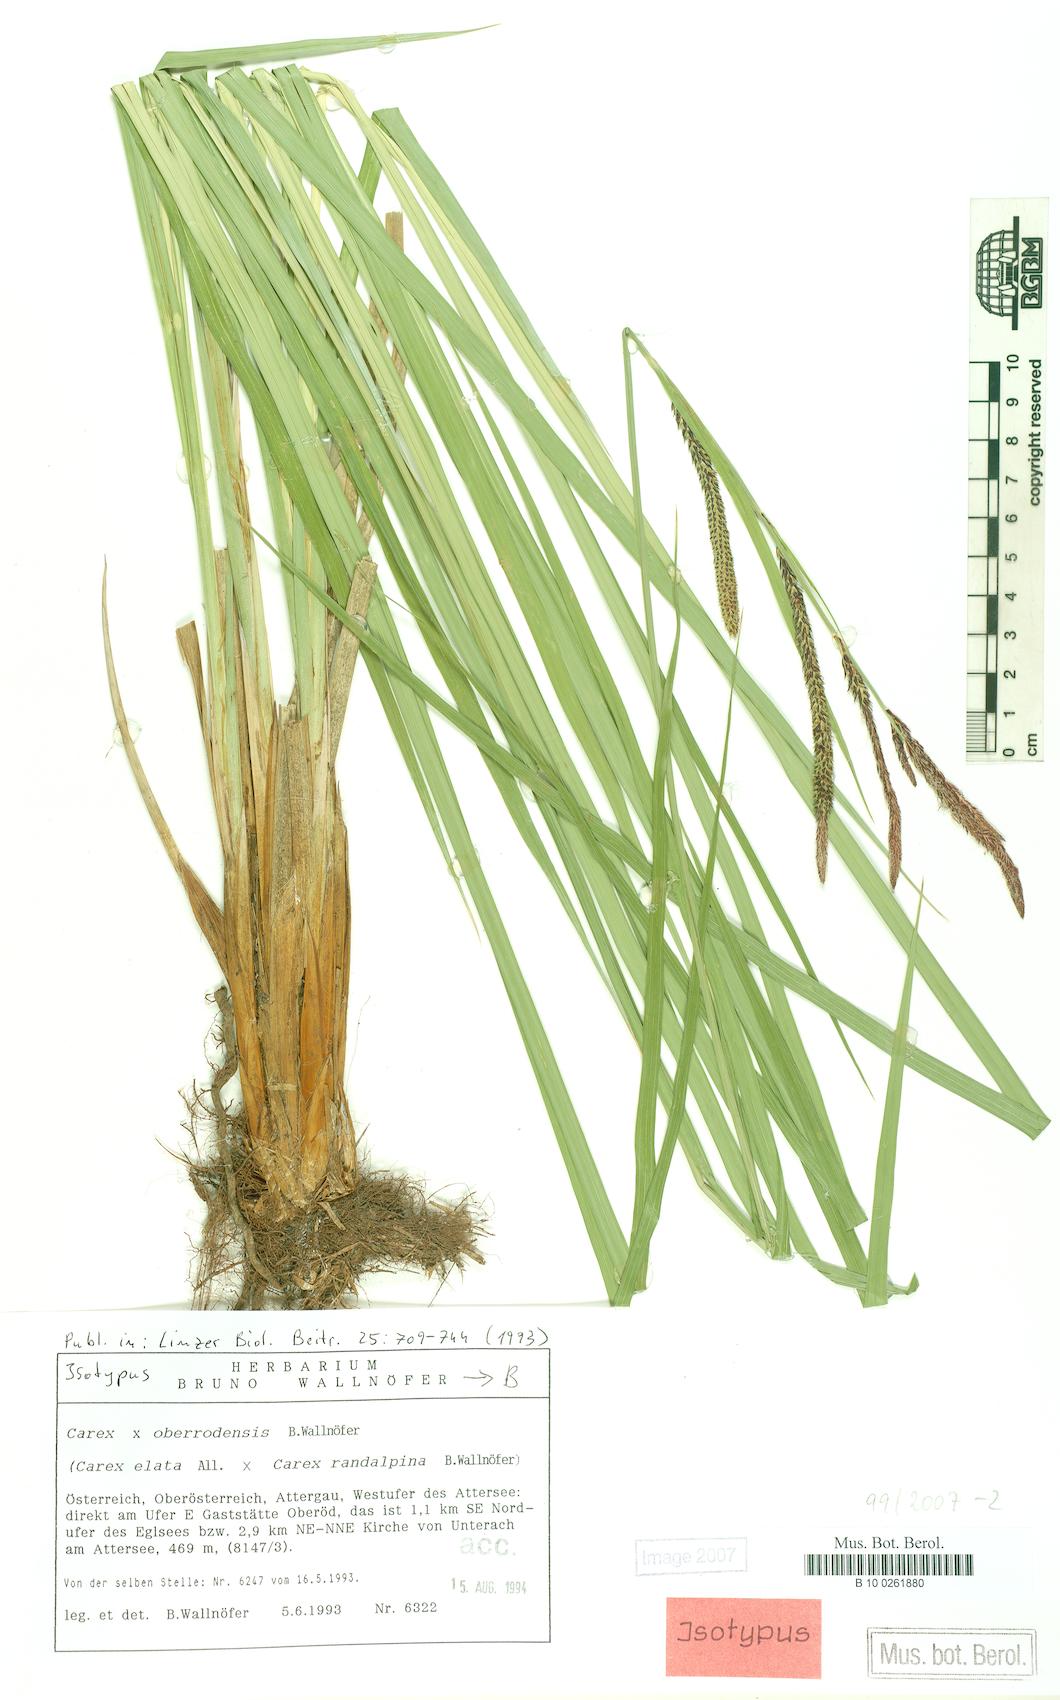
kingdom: Plantae
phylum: Tracheophyta
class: Liliopsida
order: Poales
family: Cyperaceae
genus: Carex
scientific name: Carex oberrodensis
